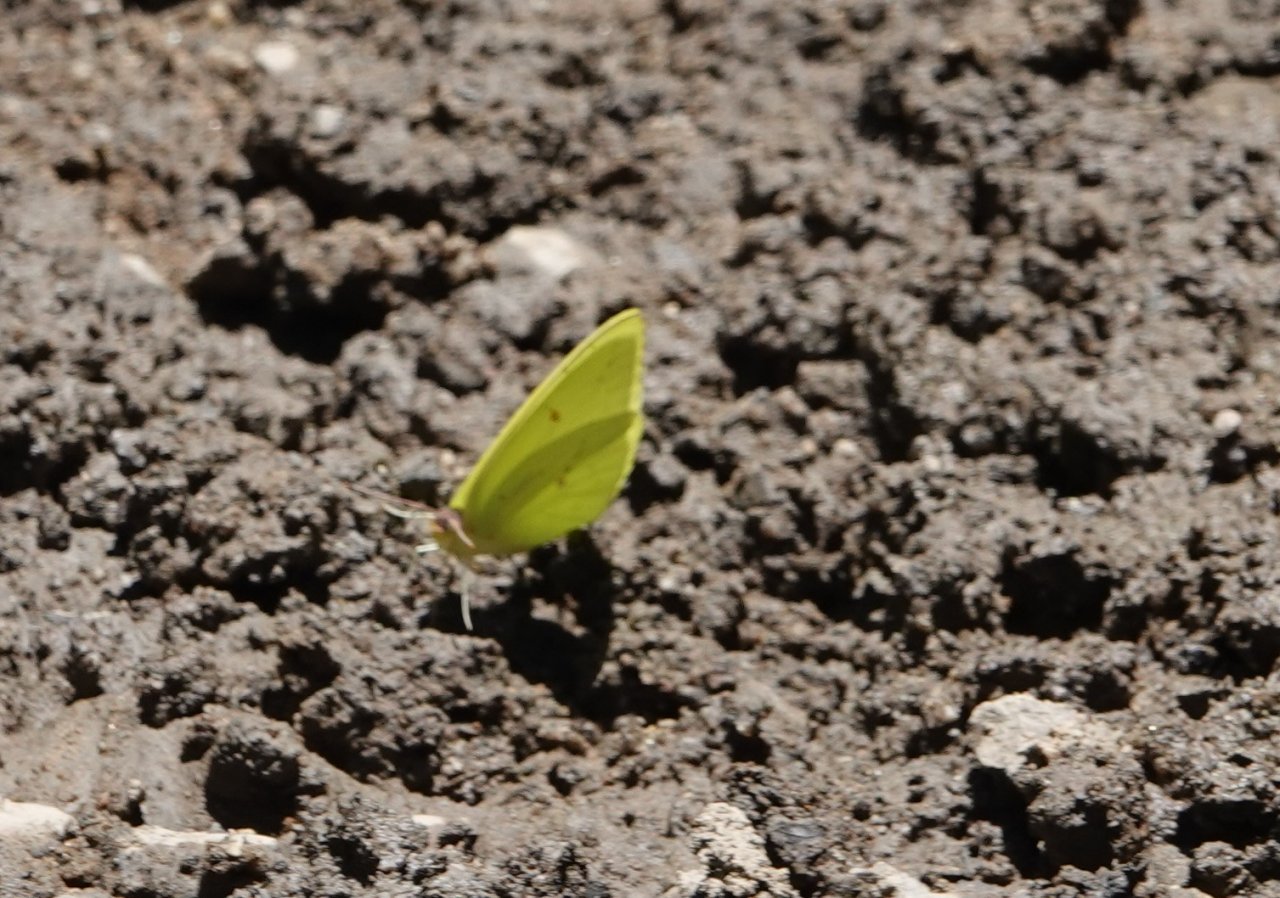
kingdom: Animalia
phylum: Arthropoda
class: Insecta
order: Lepidoptera
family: Pieridae
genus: Phoebis
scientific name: Phoebis sennae
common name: Cloudless Sulphur
